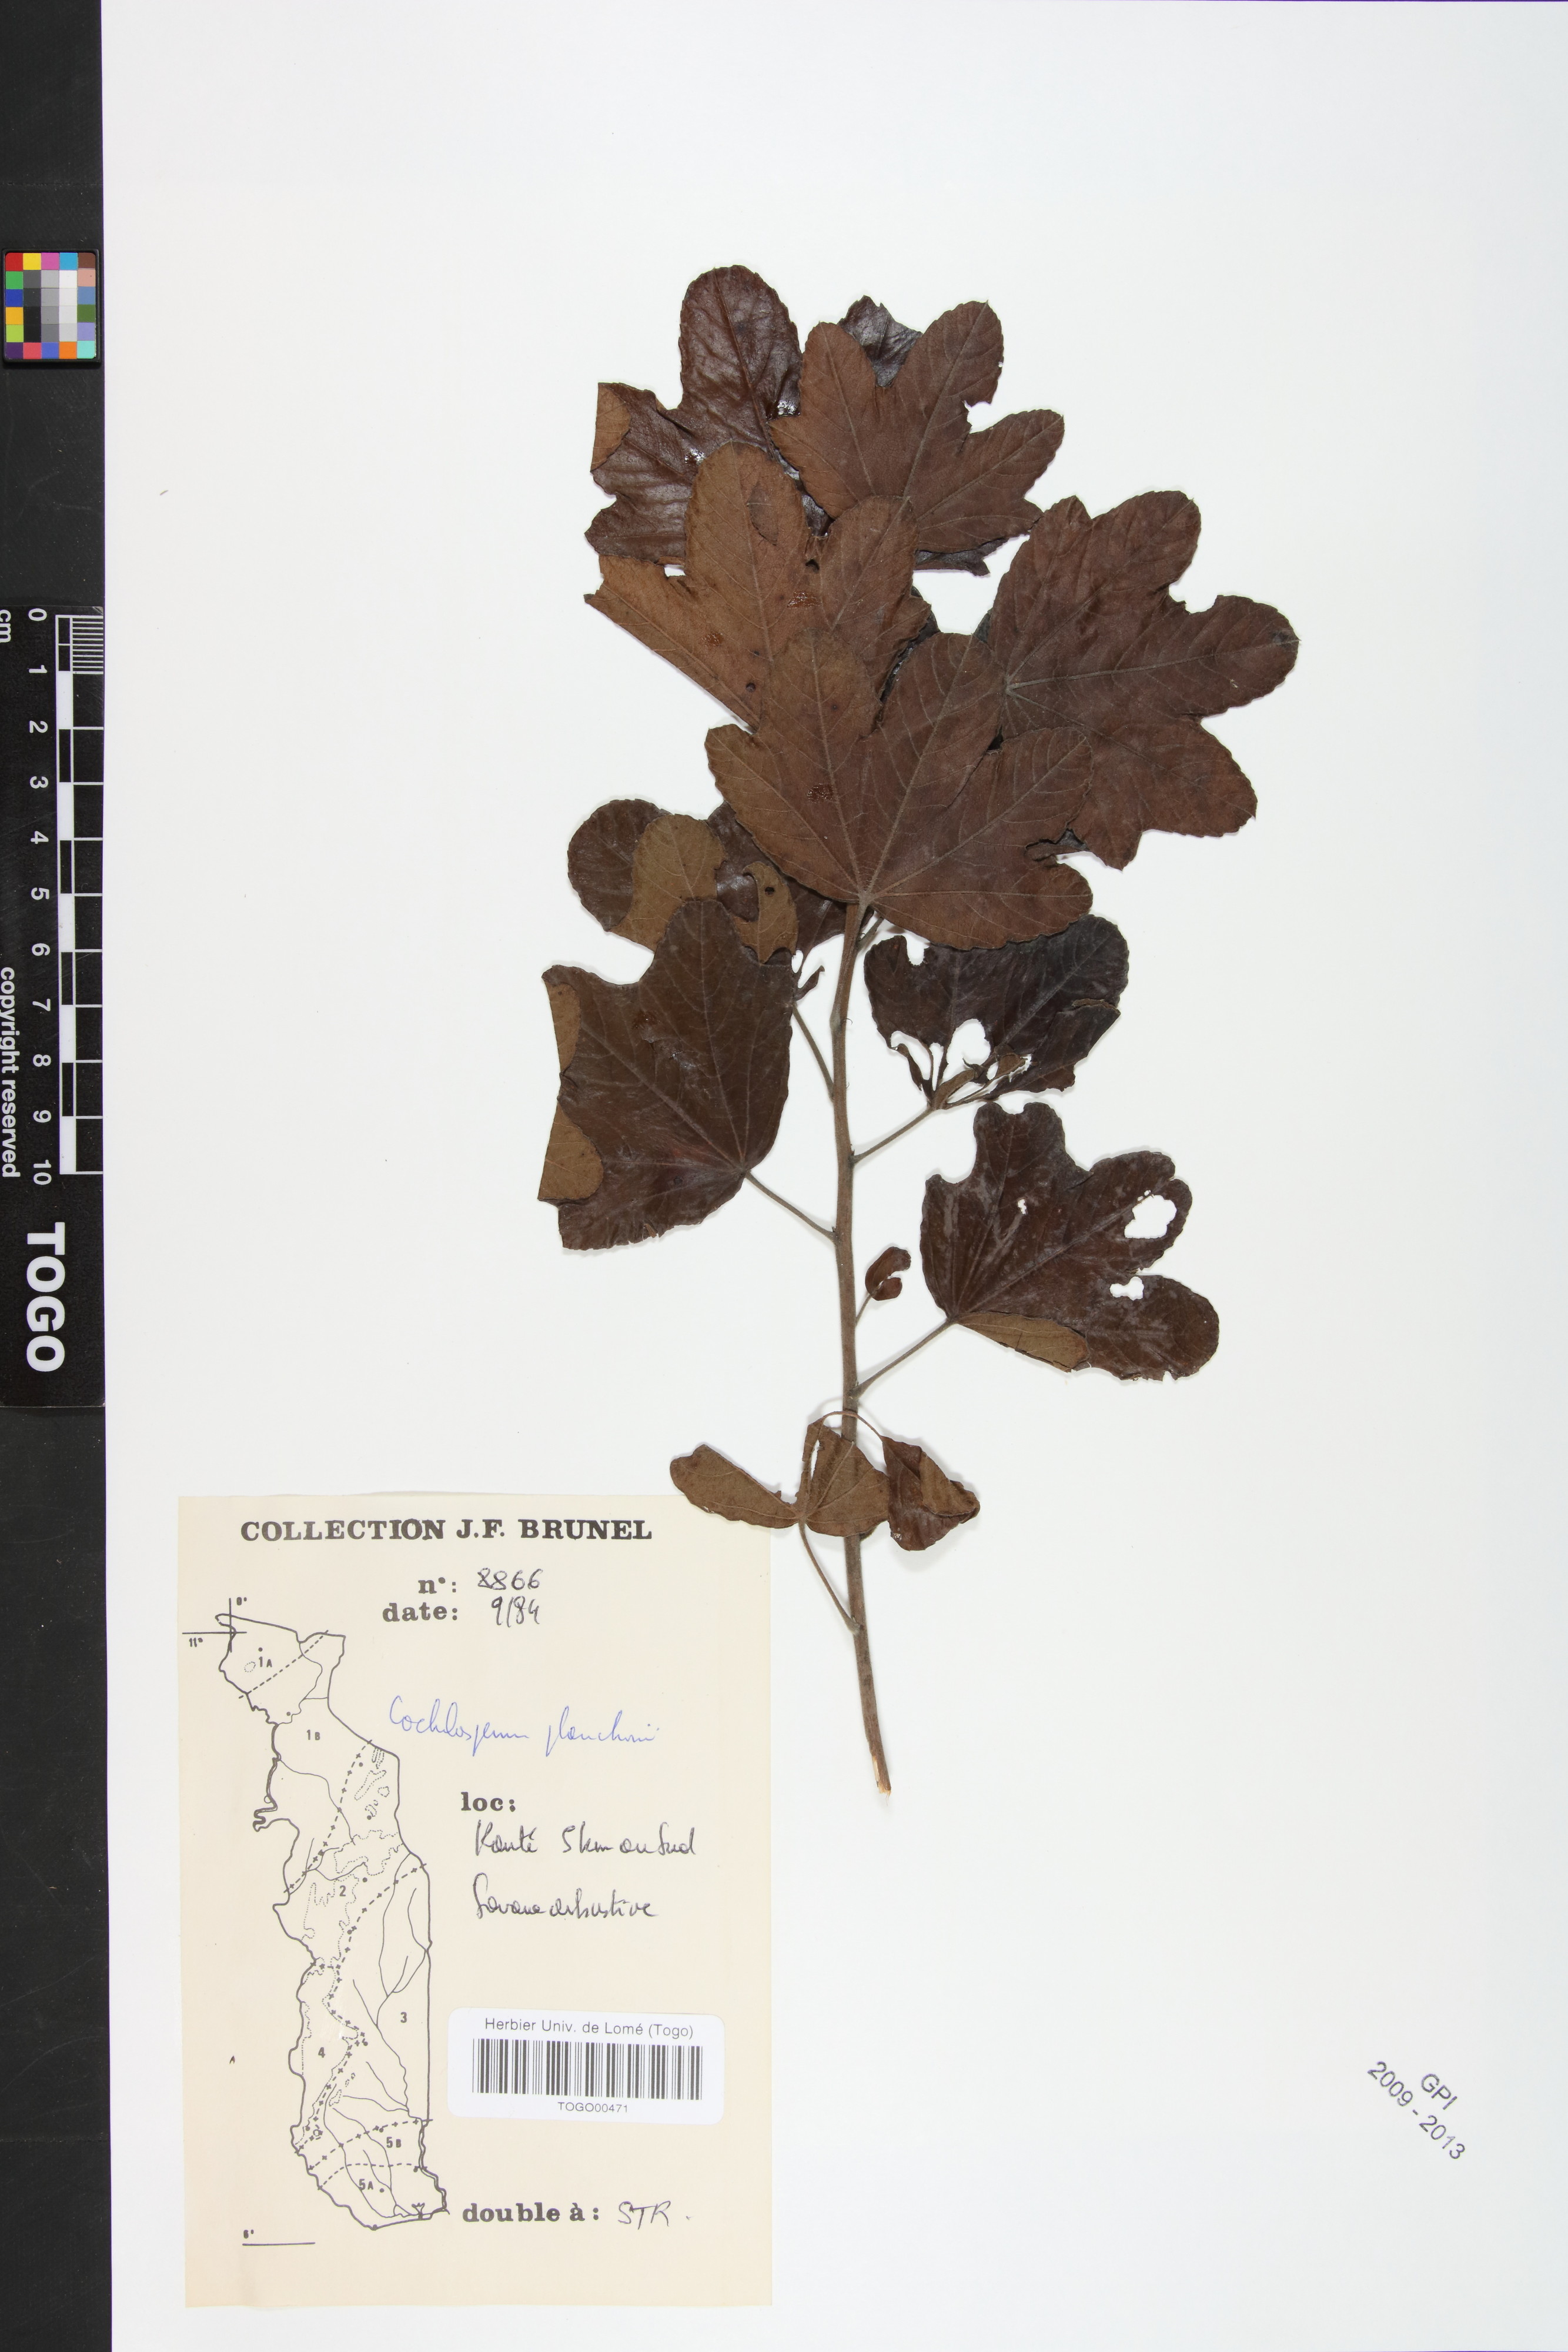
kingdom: Plantae
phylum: Tracheophyta
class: Magnoliopsida
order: Malvales
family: Cochlospermaceae
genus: Cochlospermum
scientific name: Cochlospermum planchonii
